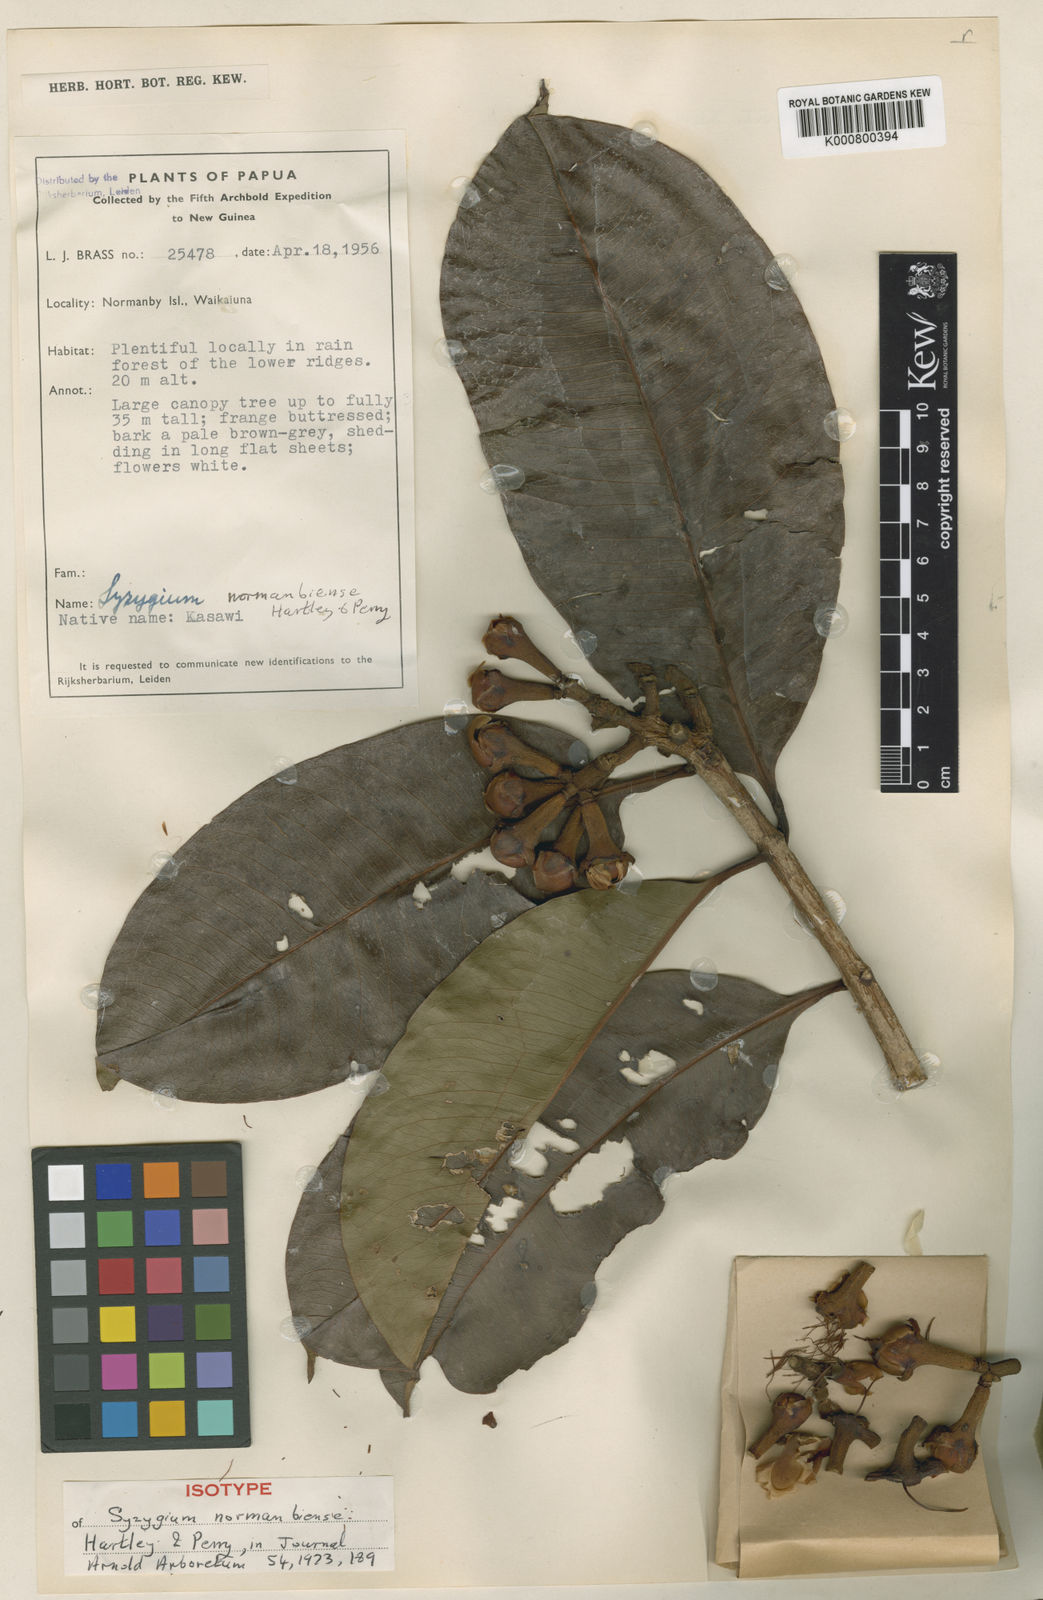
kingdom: Plantae
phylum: Tracheophyta
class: Magnoliopsida
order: Myrtales
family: Myrtaceae
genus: Syzygium
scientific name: Syzygium normanbiensc
